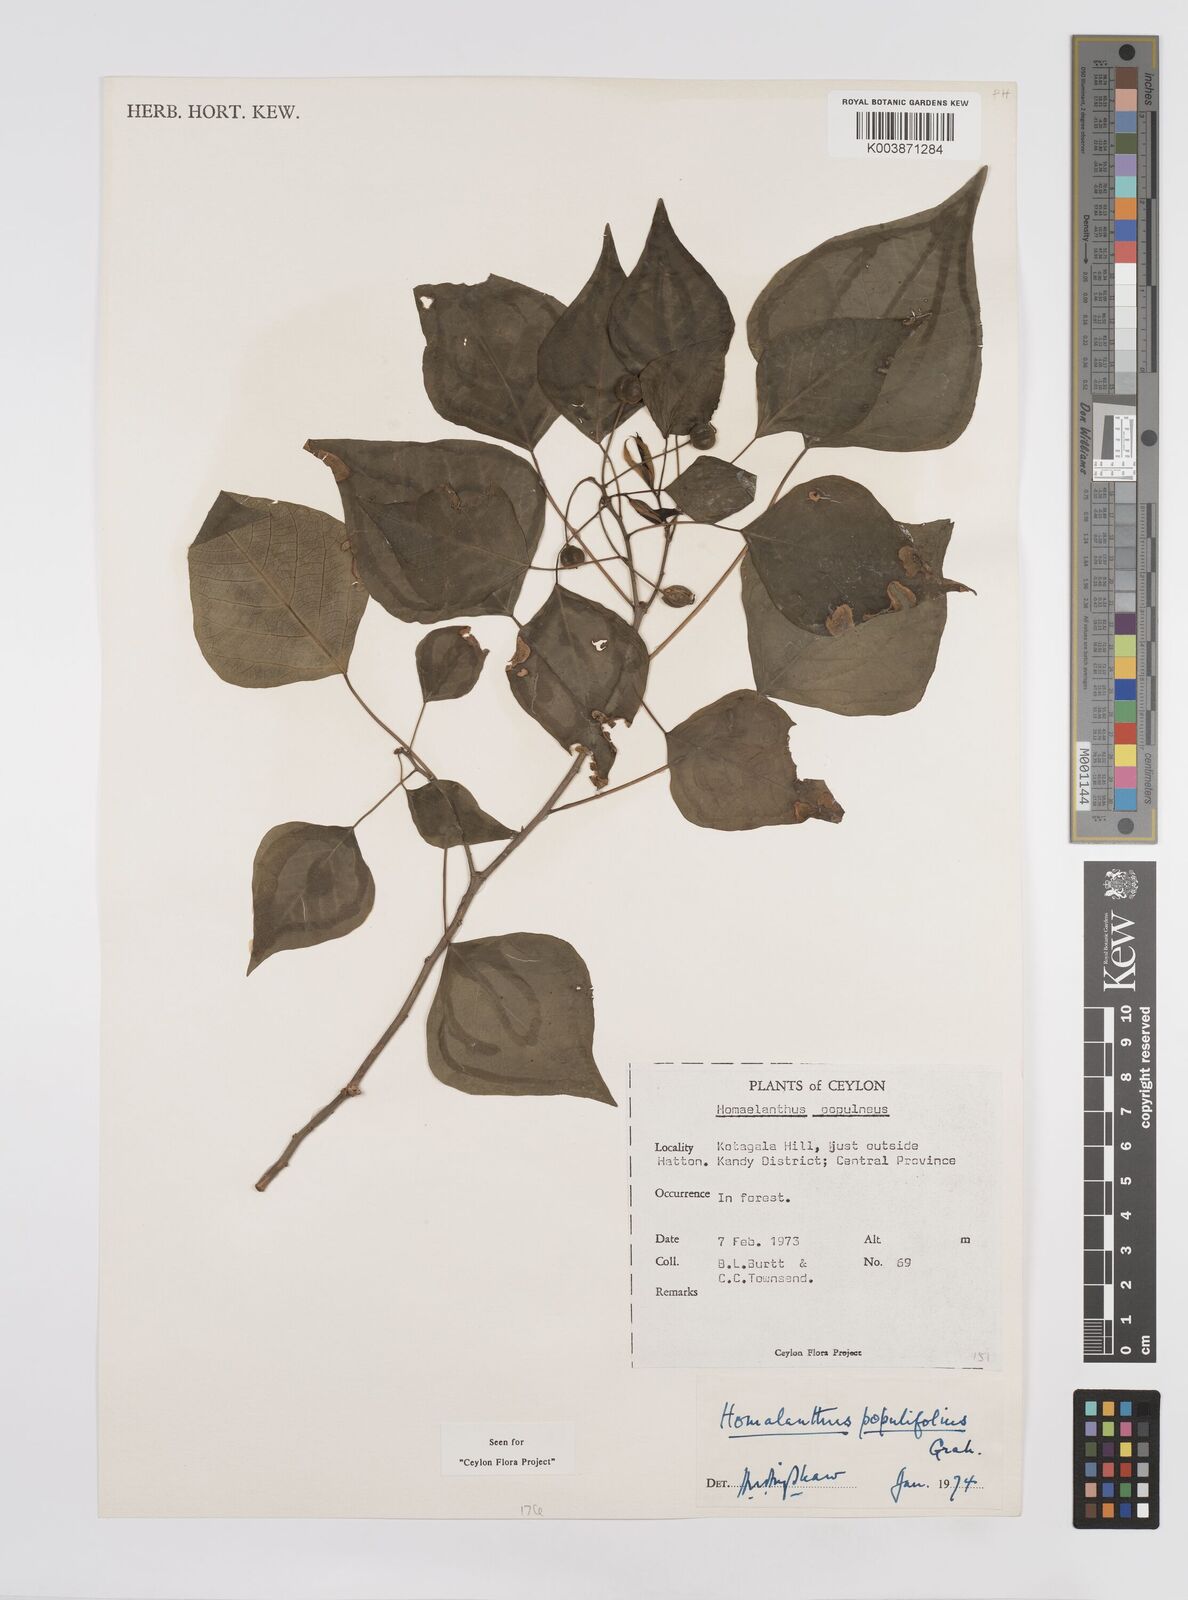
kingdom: Plantae
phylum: Tracheophyta
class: Magnoliopsida
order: Malpighiales
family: Euphorbiaceae
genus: Homalanthus
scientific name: Homalanthus populneus
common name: Spurge
